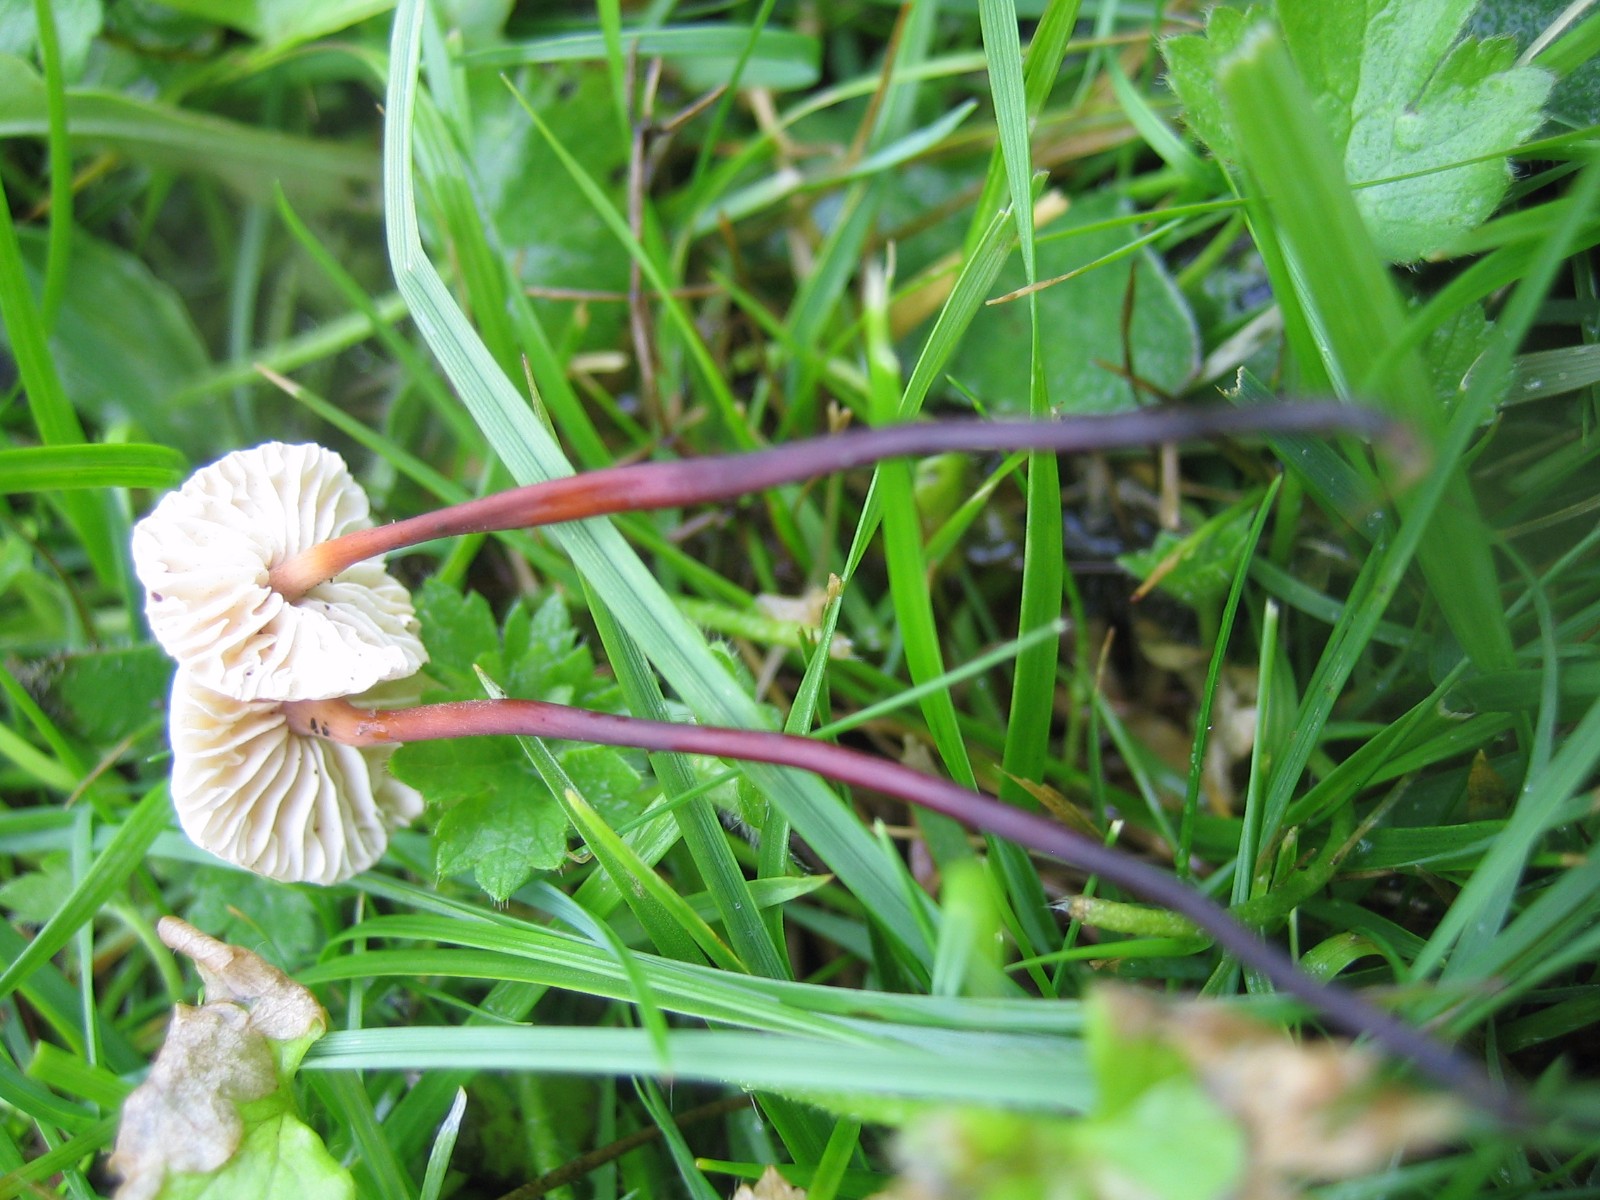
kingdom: Fungi
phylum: Basidiomycota
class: Agaricomycetes
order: Agaricales
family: Omphalotaceae
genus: Mycetinis
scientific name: Mycetinis scorodonius
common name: lille løghat
